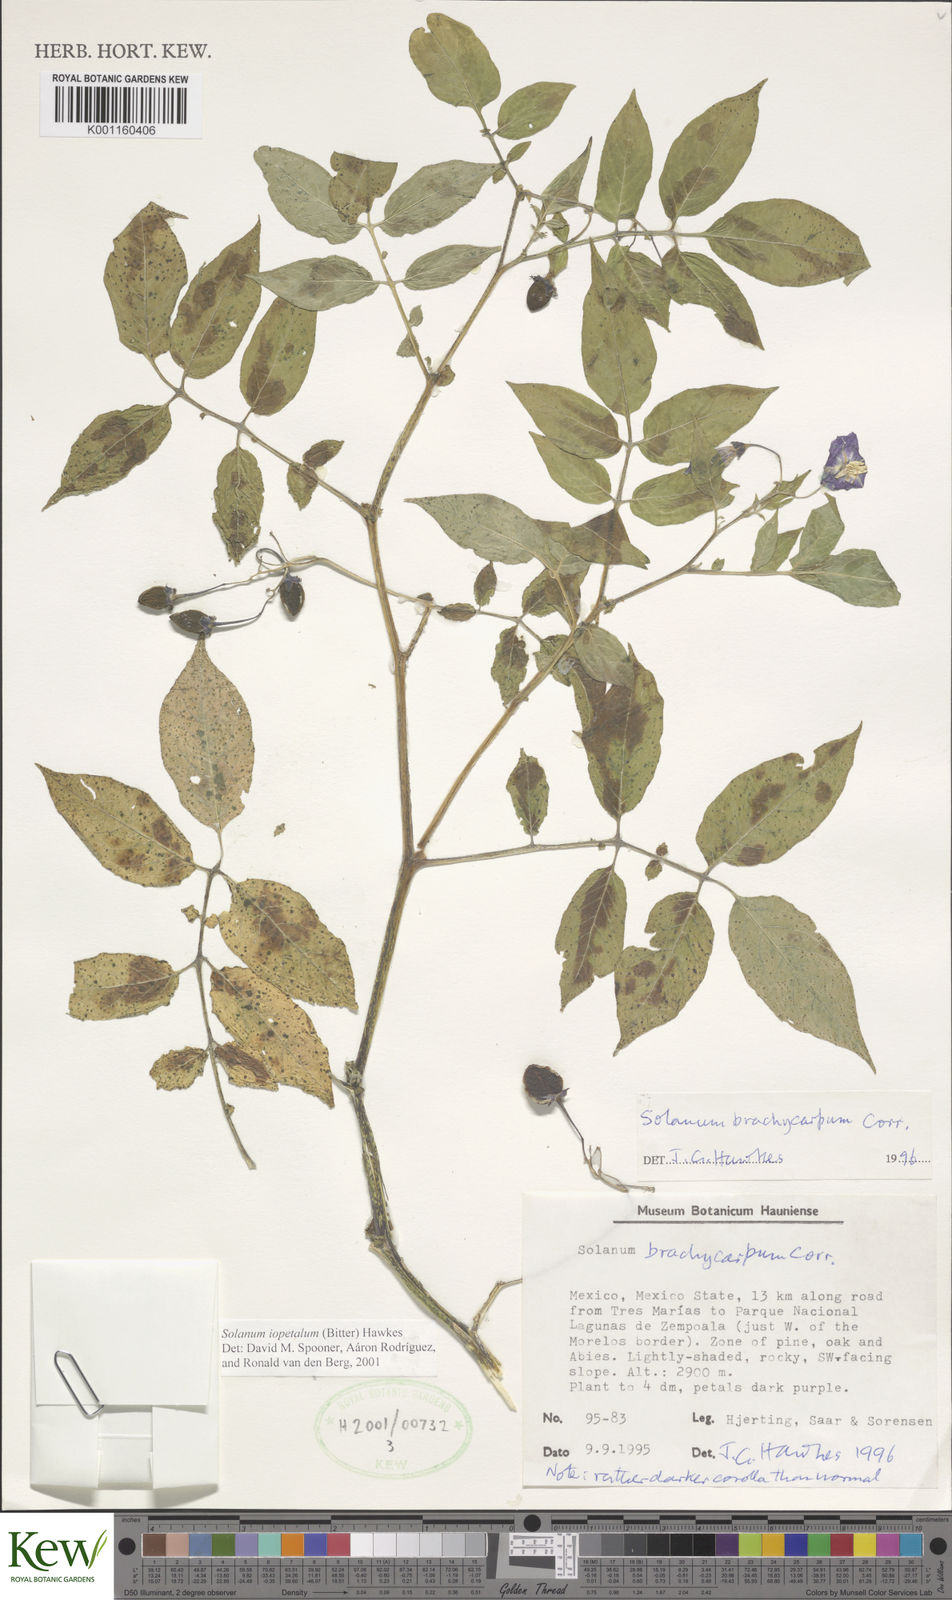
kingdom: Plantae
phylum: Tracheophyta
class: Magnoliopsida
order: Solanales
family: Solanaceae
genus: Solanum
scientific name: Solanum iopetalum
